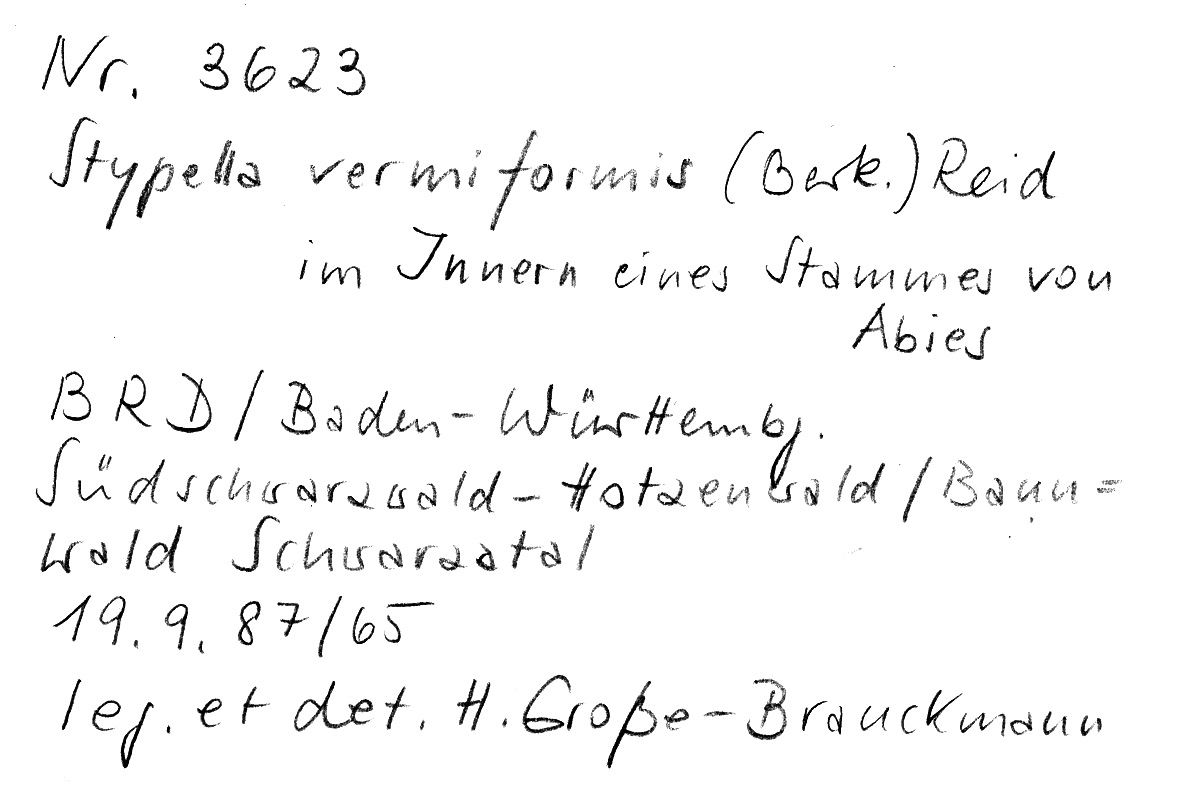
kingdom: Plantae
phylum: Tracheophyta
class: Pinopsida
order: Pinales
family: Pinaceae
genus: Abies
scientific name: Abies
